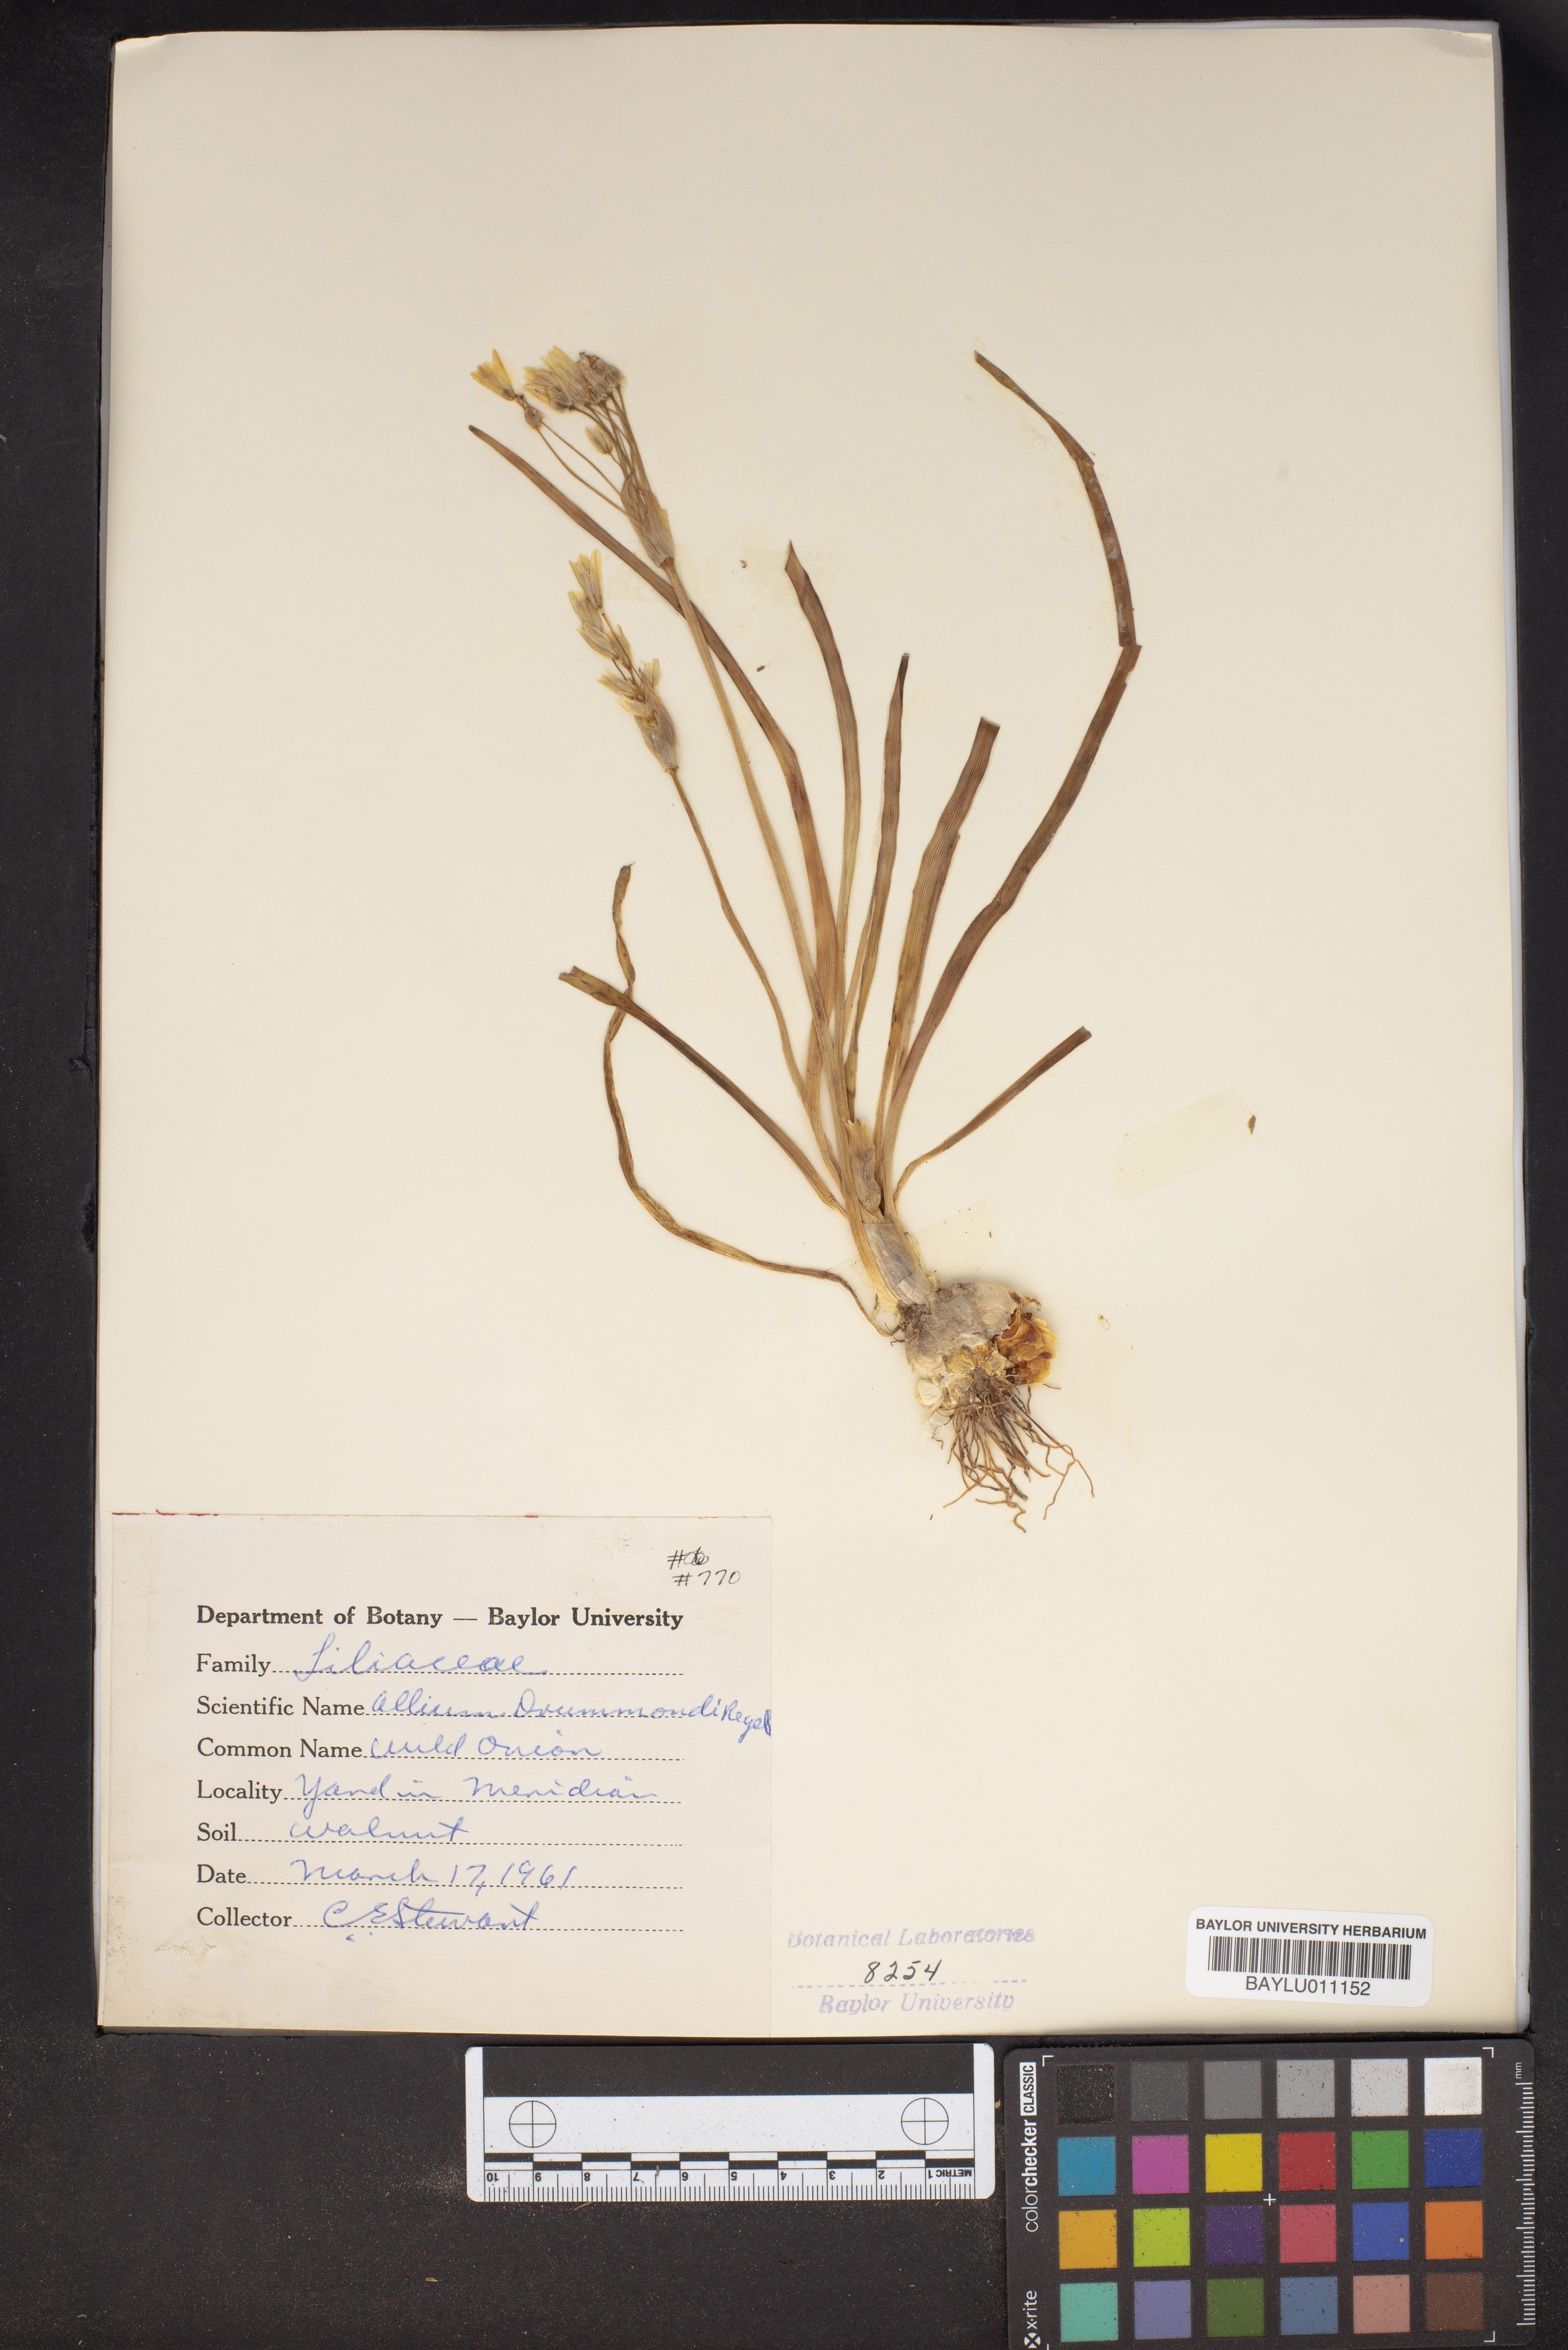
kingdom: Plantae
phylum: Tracheophyta
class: Liliopsida
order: Asparagales
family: Amaryllidaceae
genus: Allium
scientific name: Allium drummondii
